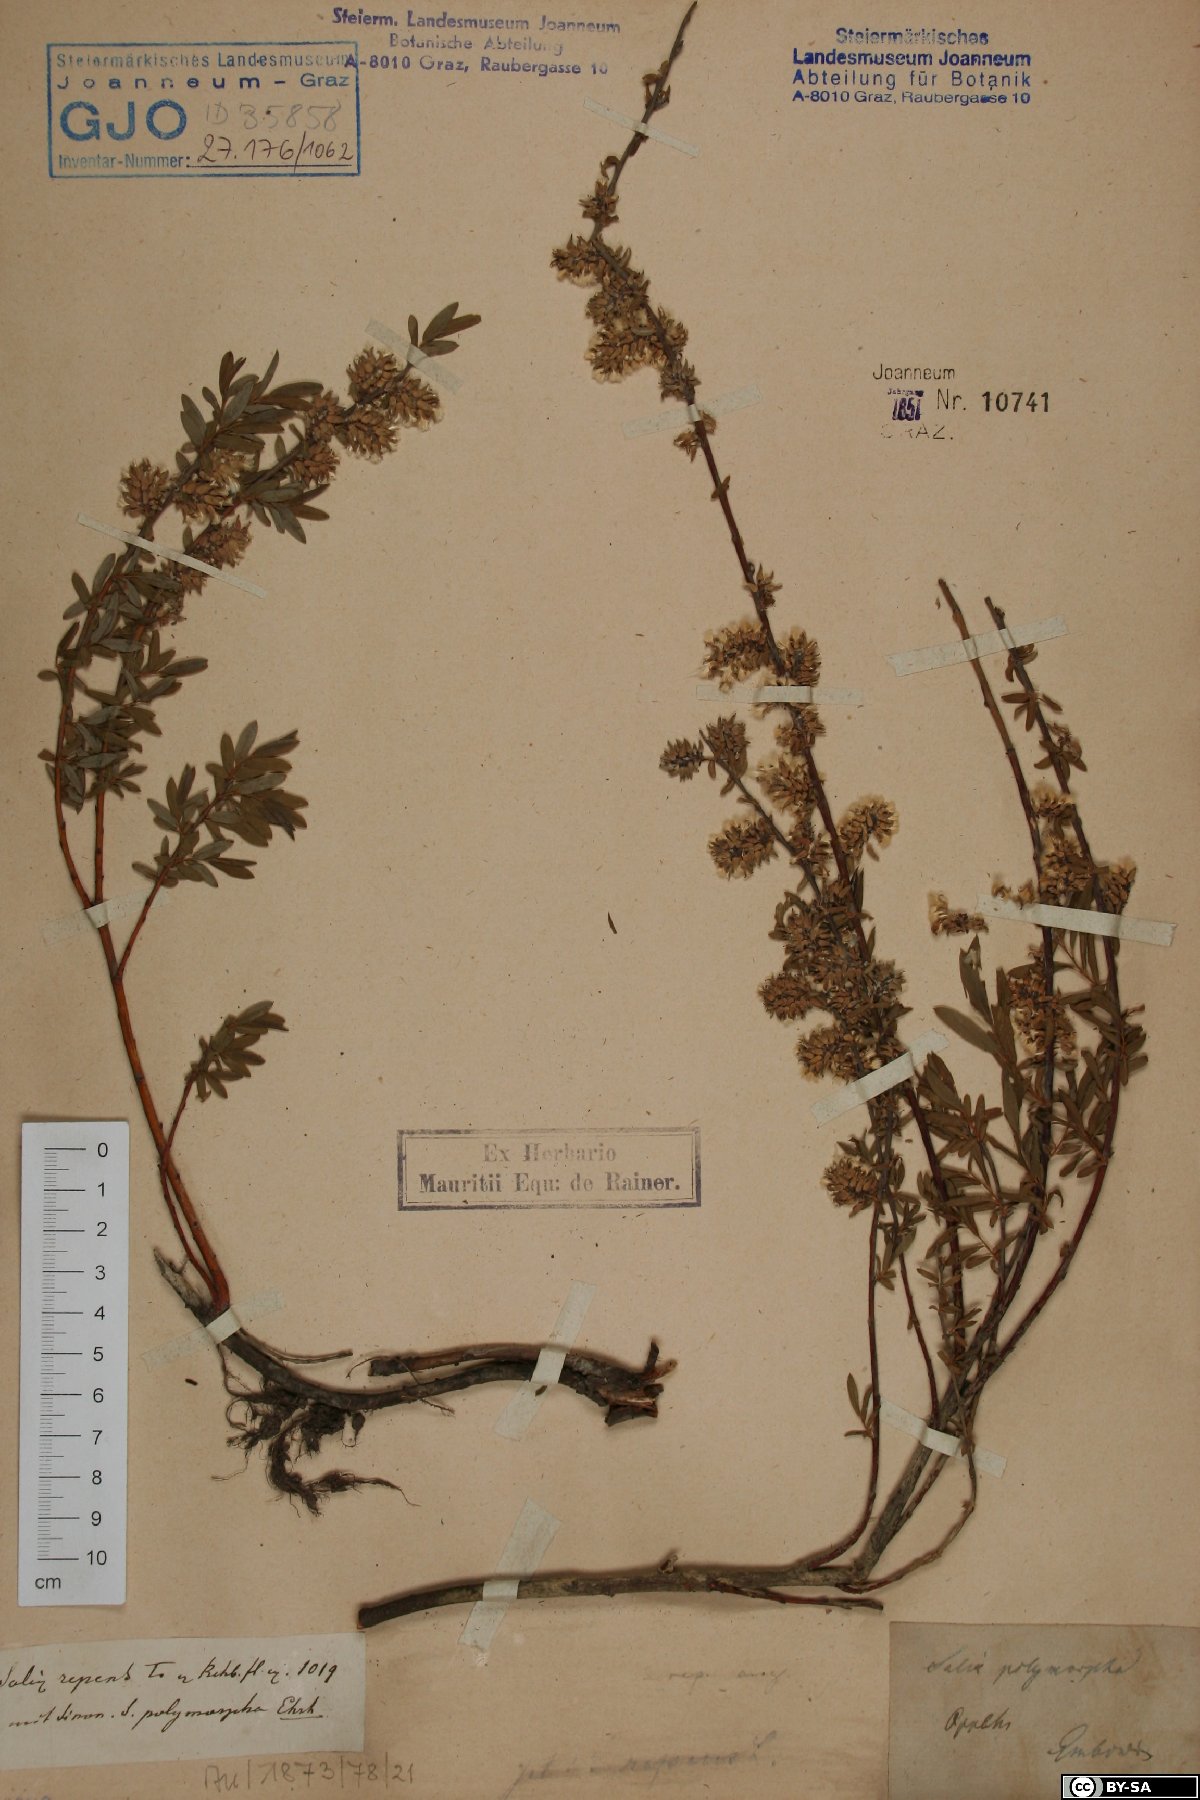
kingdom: Plantae
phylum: Tracheophyta
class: Magnoliopsida
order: Malpighiales
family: Salicaceae
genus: Salix
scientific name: Salix rosmarinifolia
